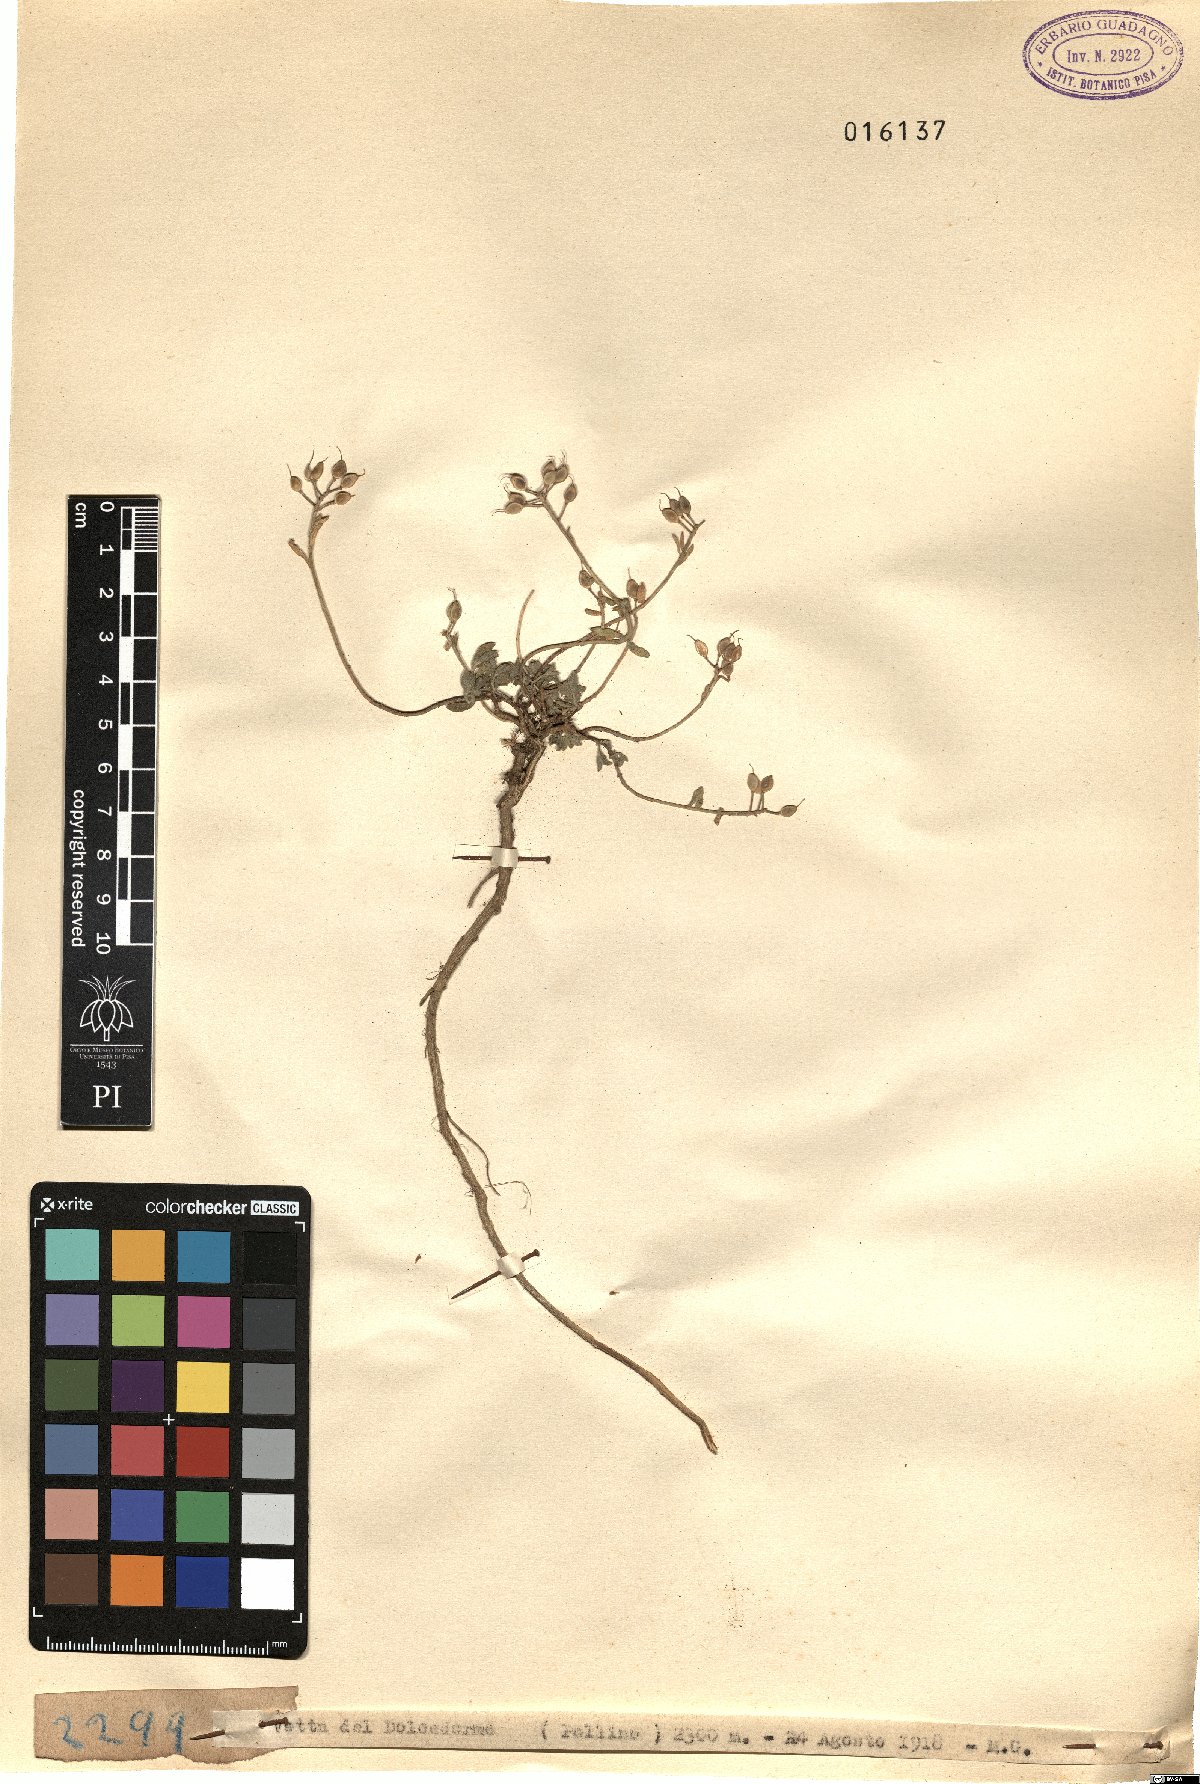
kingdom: Plantae
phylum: Tracheophyta
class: Magnoliopsida
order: Brassicales
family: Brassicaceae
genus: Alyssum
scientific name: Alyssum
